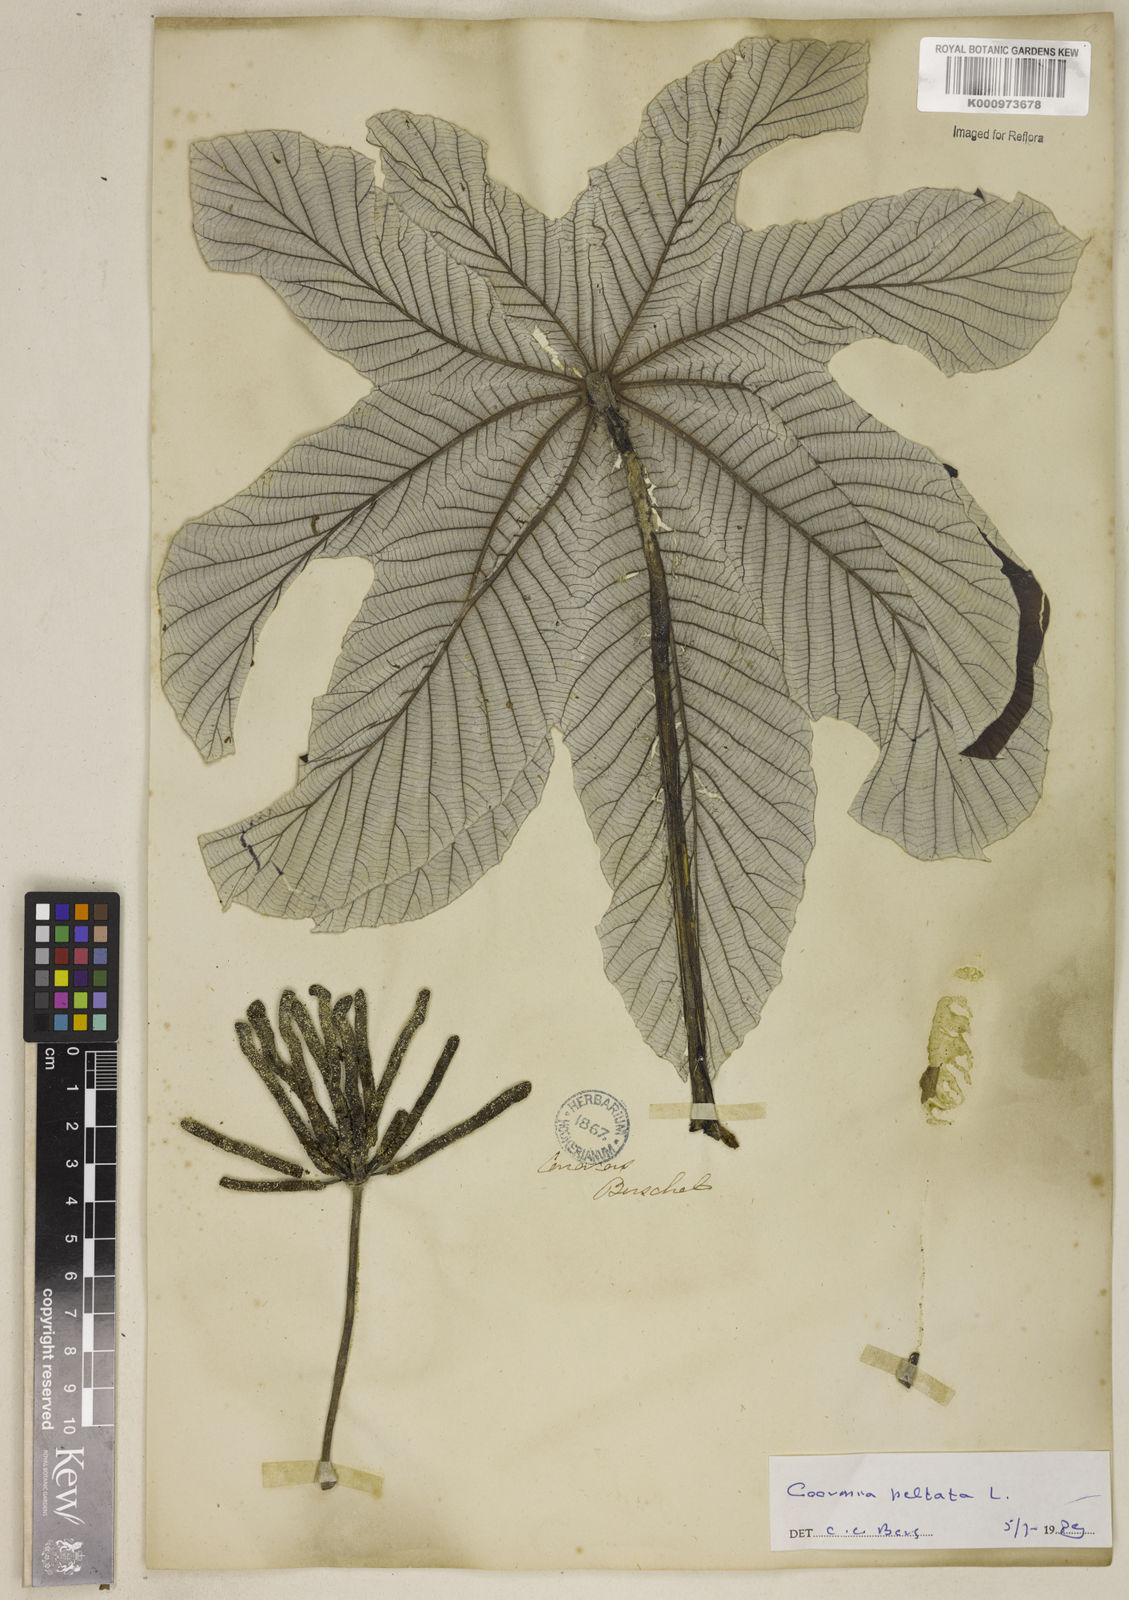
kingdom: Plantae
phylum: Tracheophyta
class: Magnoliopsida
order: Rosales
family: Urticaceae
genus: Cecropia
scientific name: Cecropia peltata
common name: Trumpet-tree
